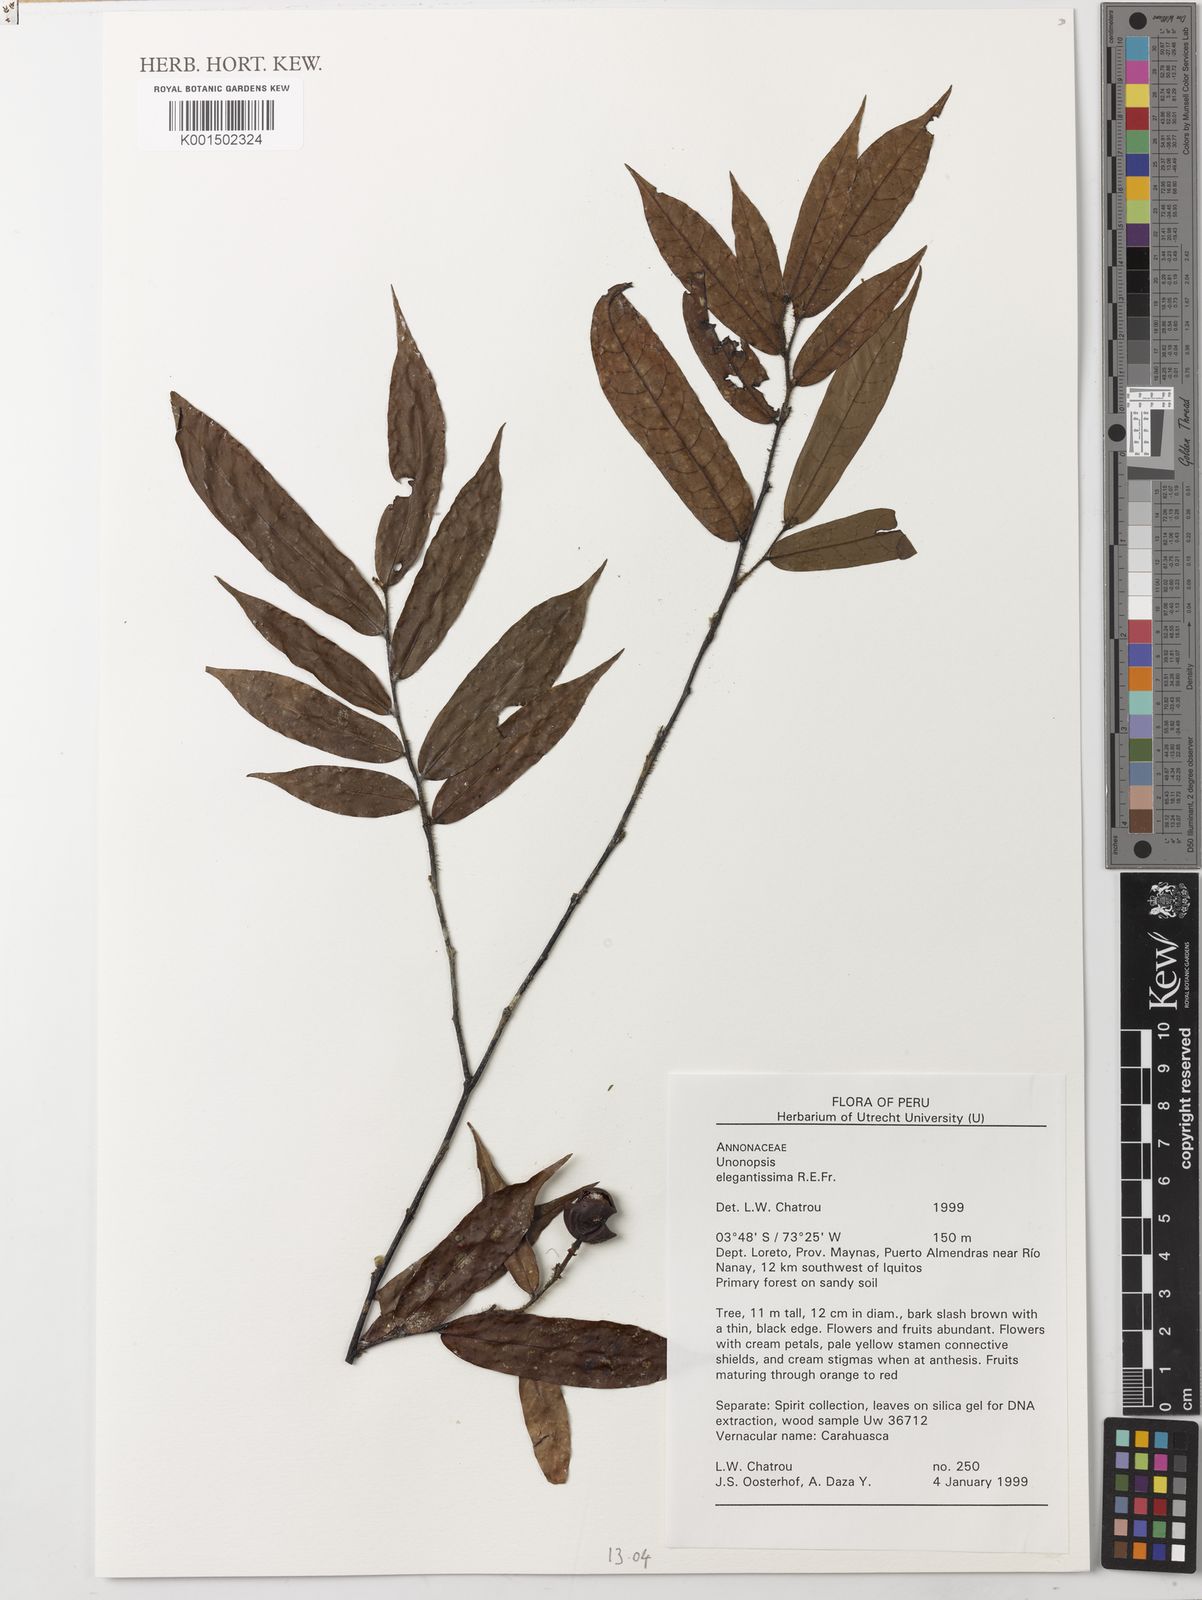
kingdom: Plantae
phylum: Tracheophyta
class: Magnoliopsida
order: Magnoliales
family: Annonaceae
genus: Unonopsis
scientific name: Unonopsis elegantissima
